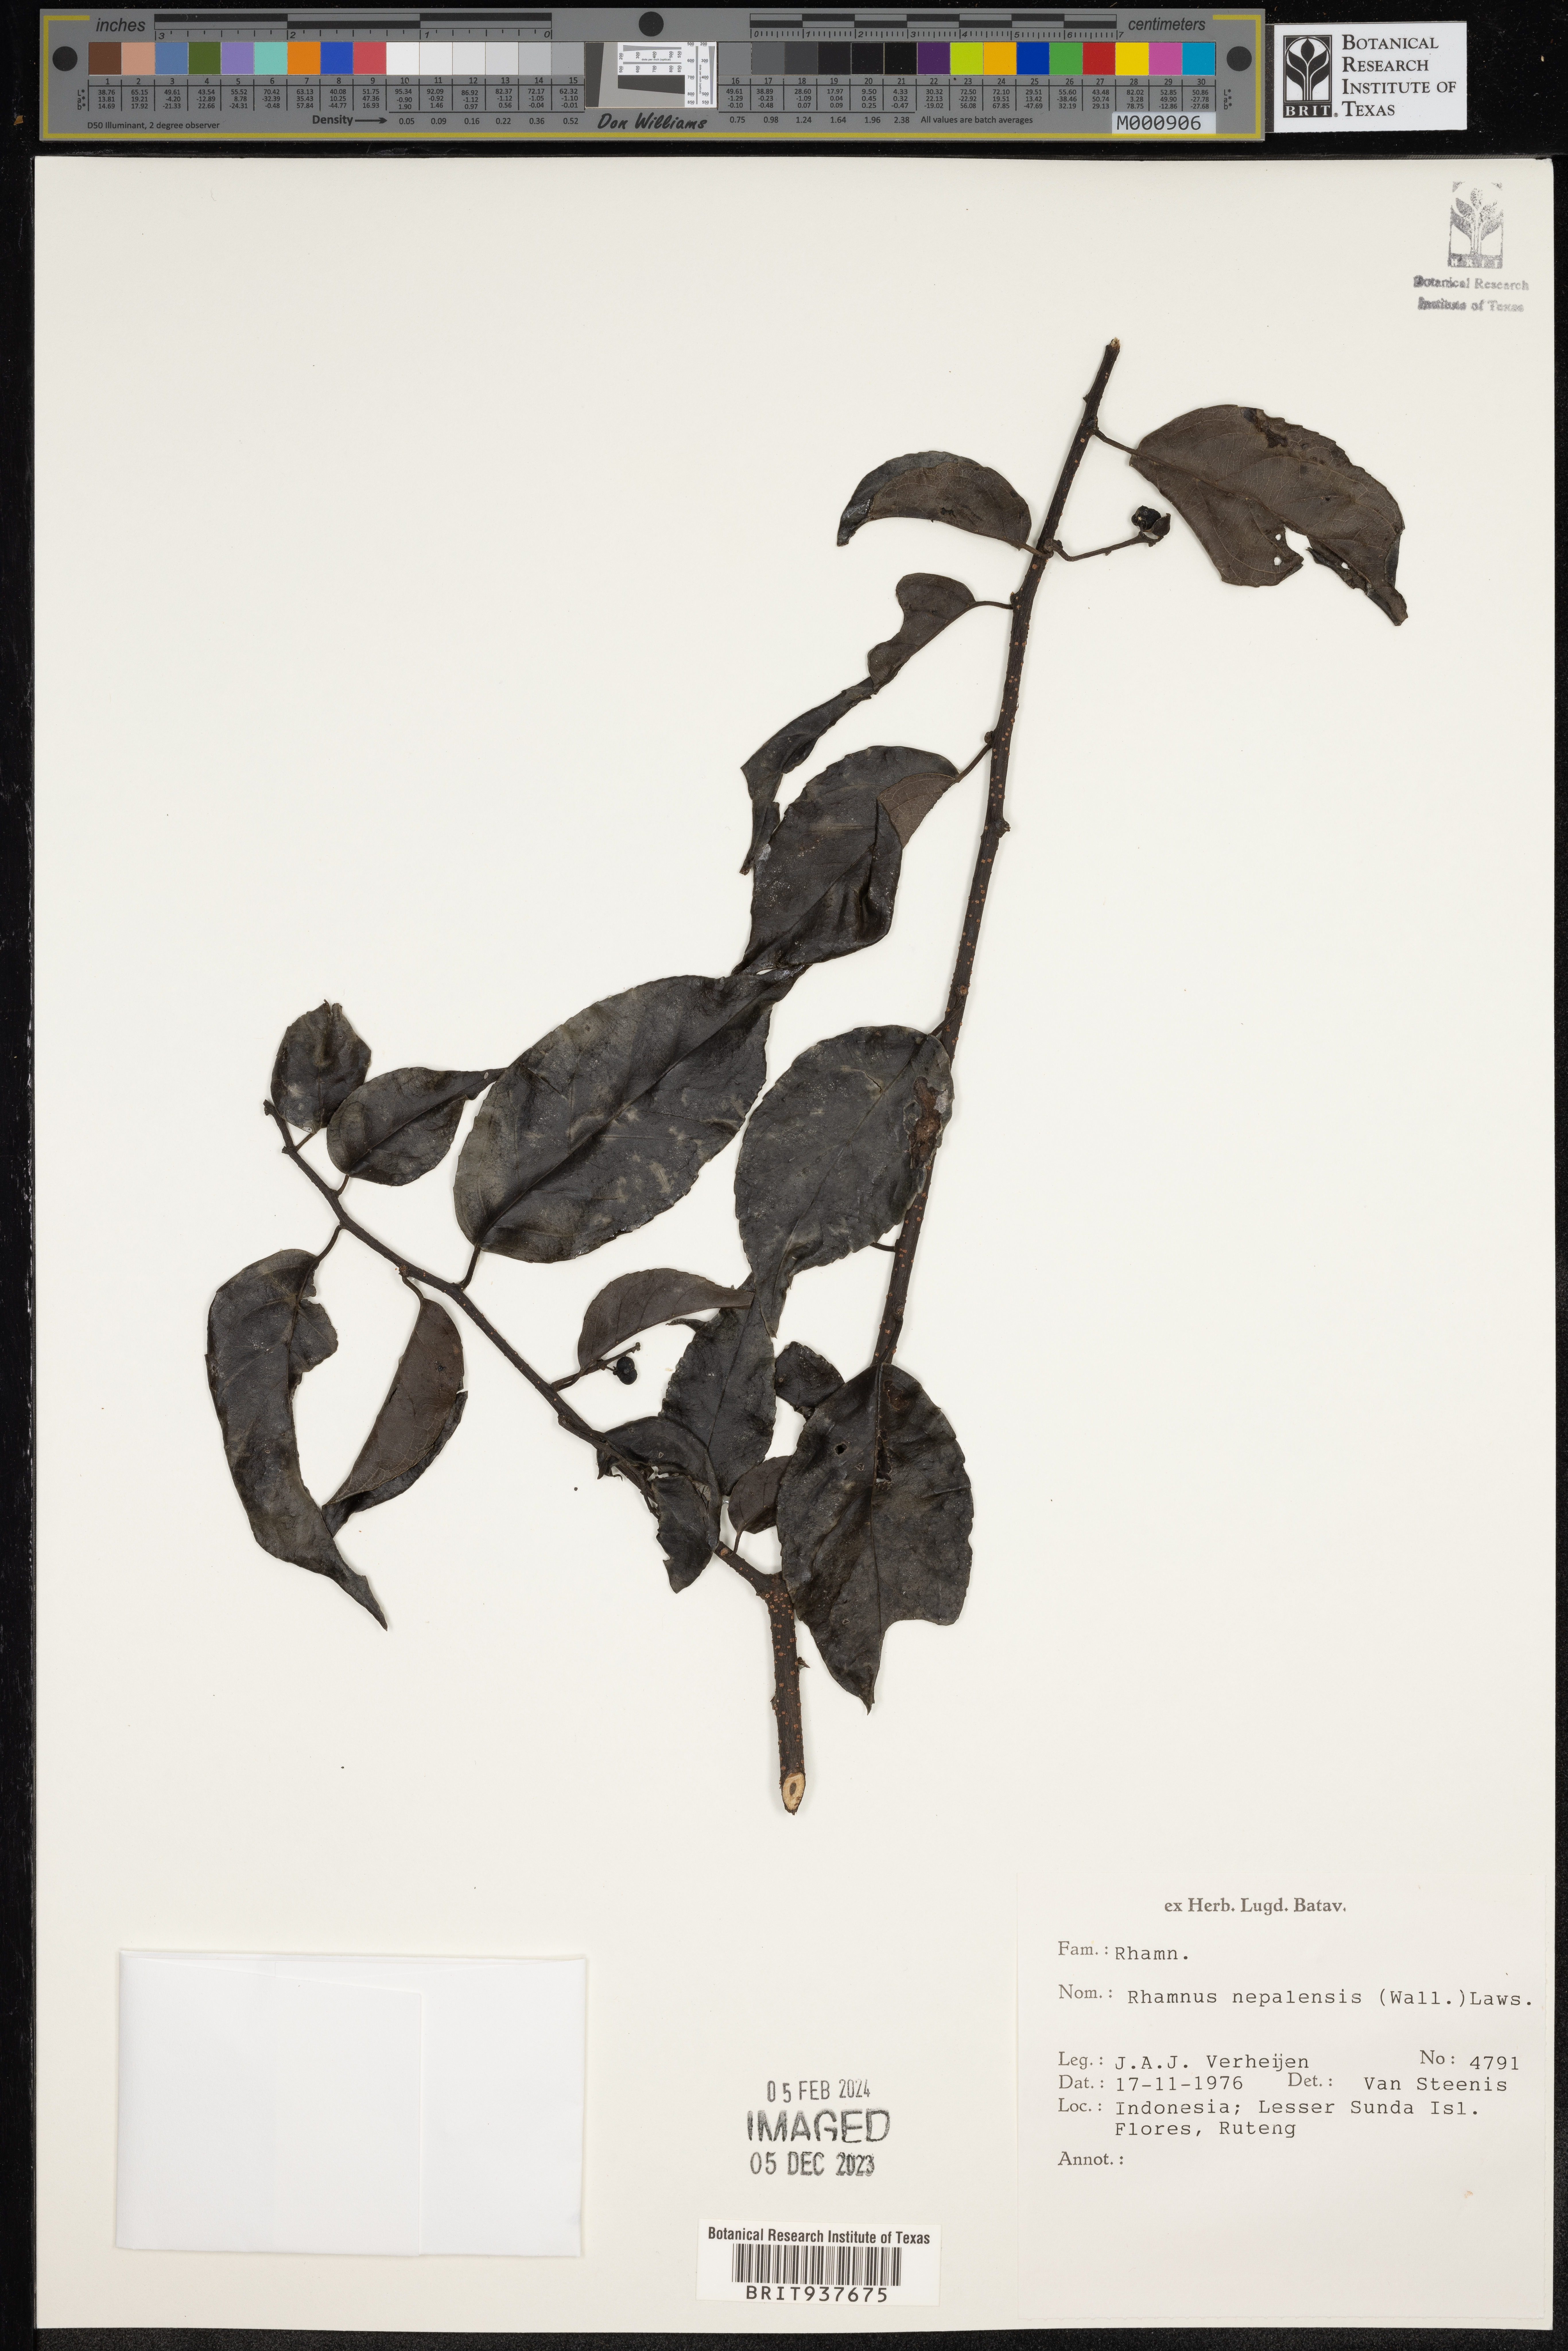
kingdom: Plantae
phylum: Tracheophyta
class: Magnoliopsida
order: Rosales
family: Rhamnaceae
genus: Rhamnus
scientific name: Rhamnus
